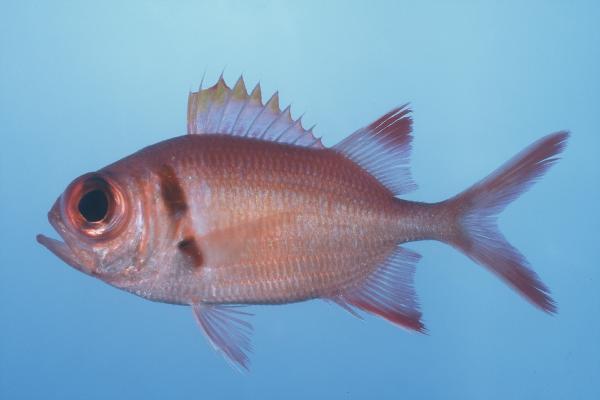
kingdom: Animalia
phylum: Chordata
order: Beryciformes
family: Holocentridae
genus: Myripristis
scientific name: Myripristis kuntee
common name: Epaulette soldierfish
